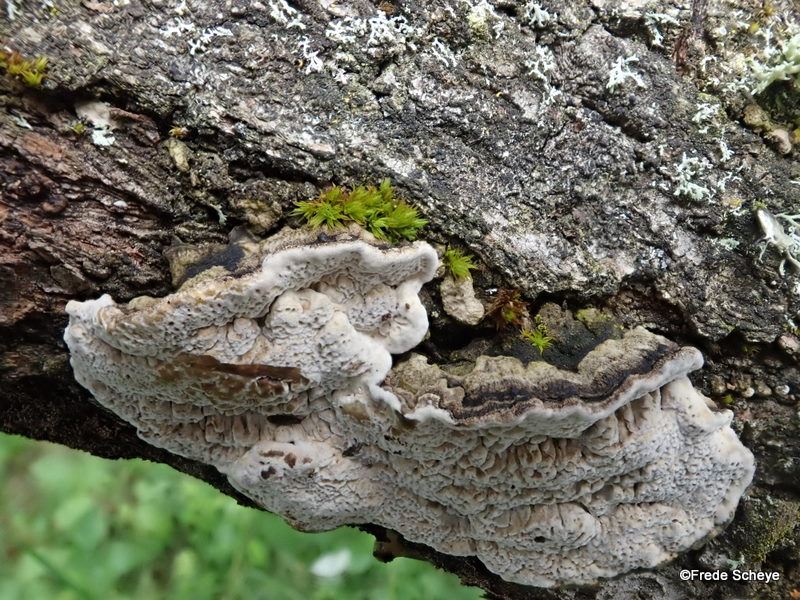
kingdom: Fungi
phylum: Basidiomycota
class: Agaricomycetes
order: Polyporales
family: Polyporaceae
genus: Podofomes
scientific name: Podofomes mollis
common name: blød begporesvamp
